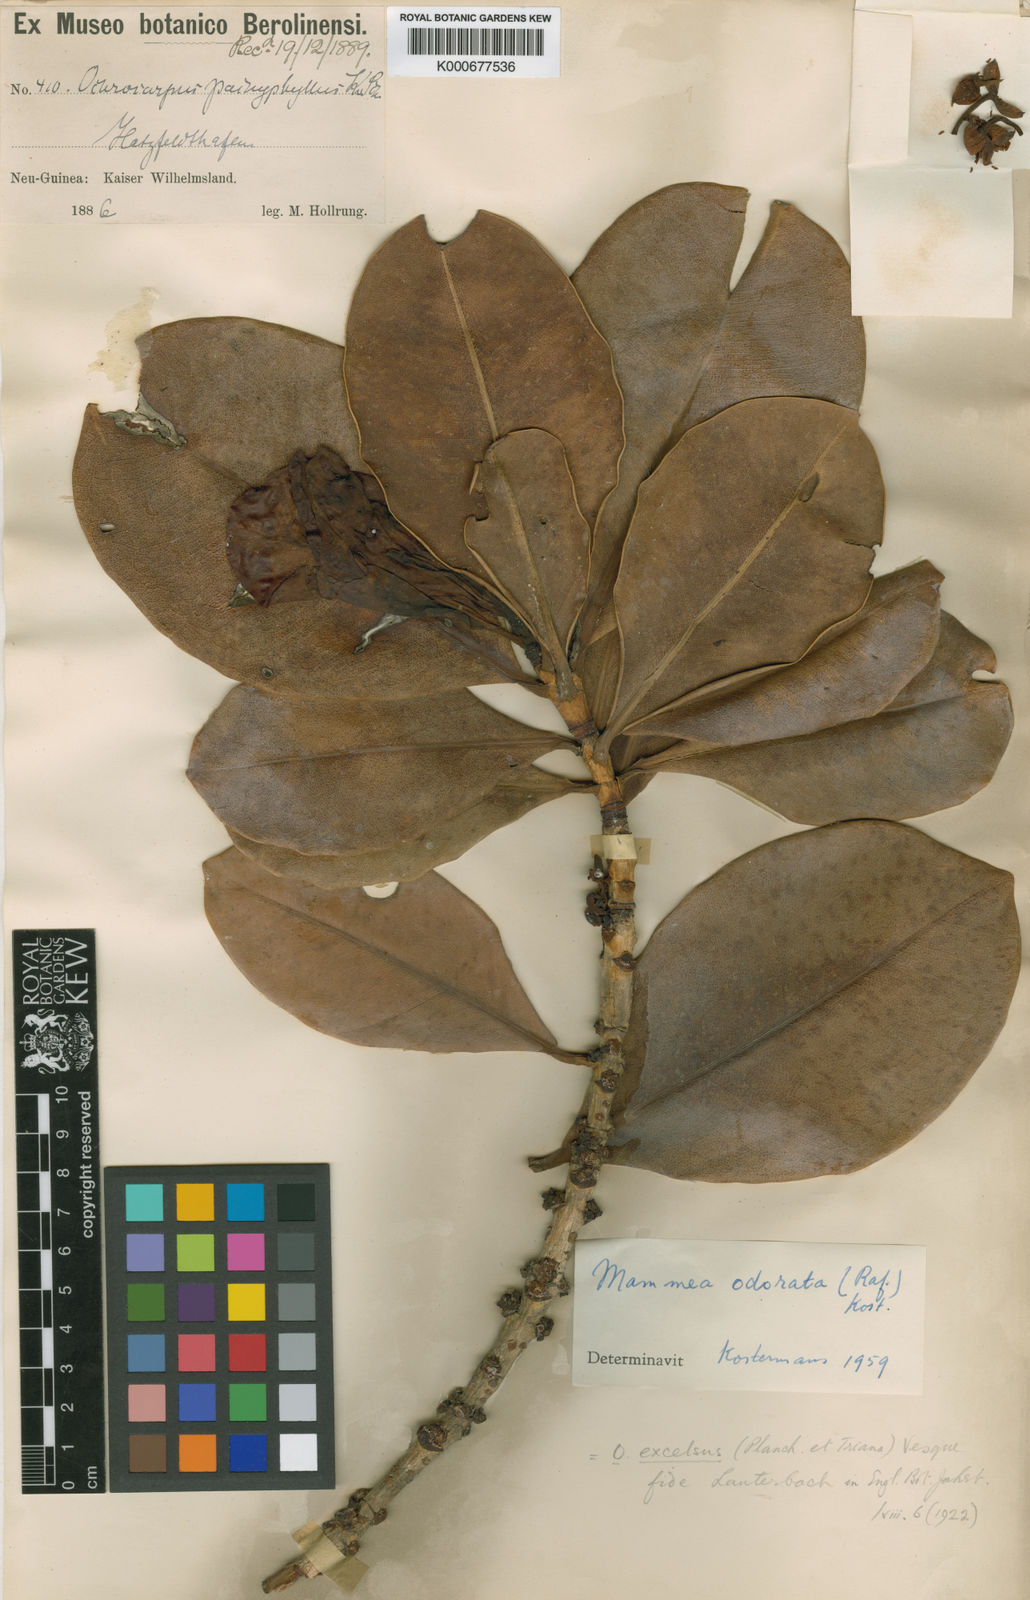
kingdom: Plantae
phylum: Tracheophyta
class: Magnoliopsida
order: Malpighiales
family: Calophyllaceae
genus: Mammea
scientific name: Mammea odorata
